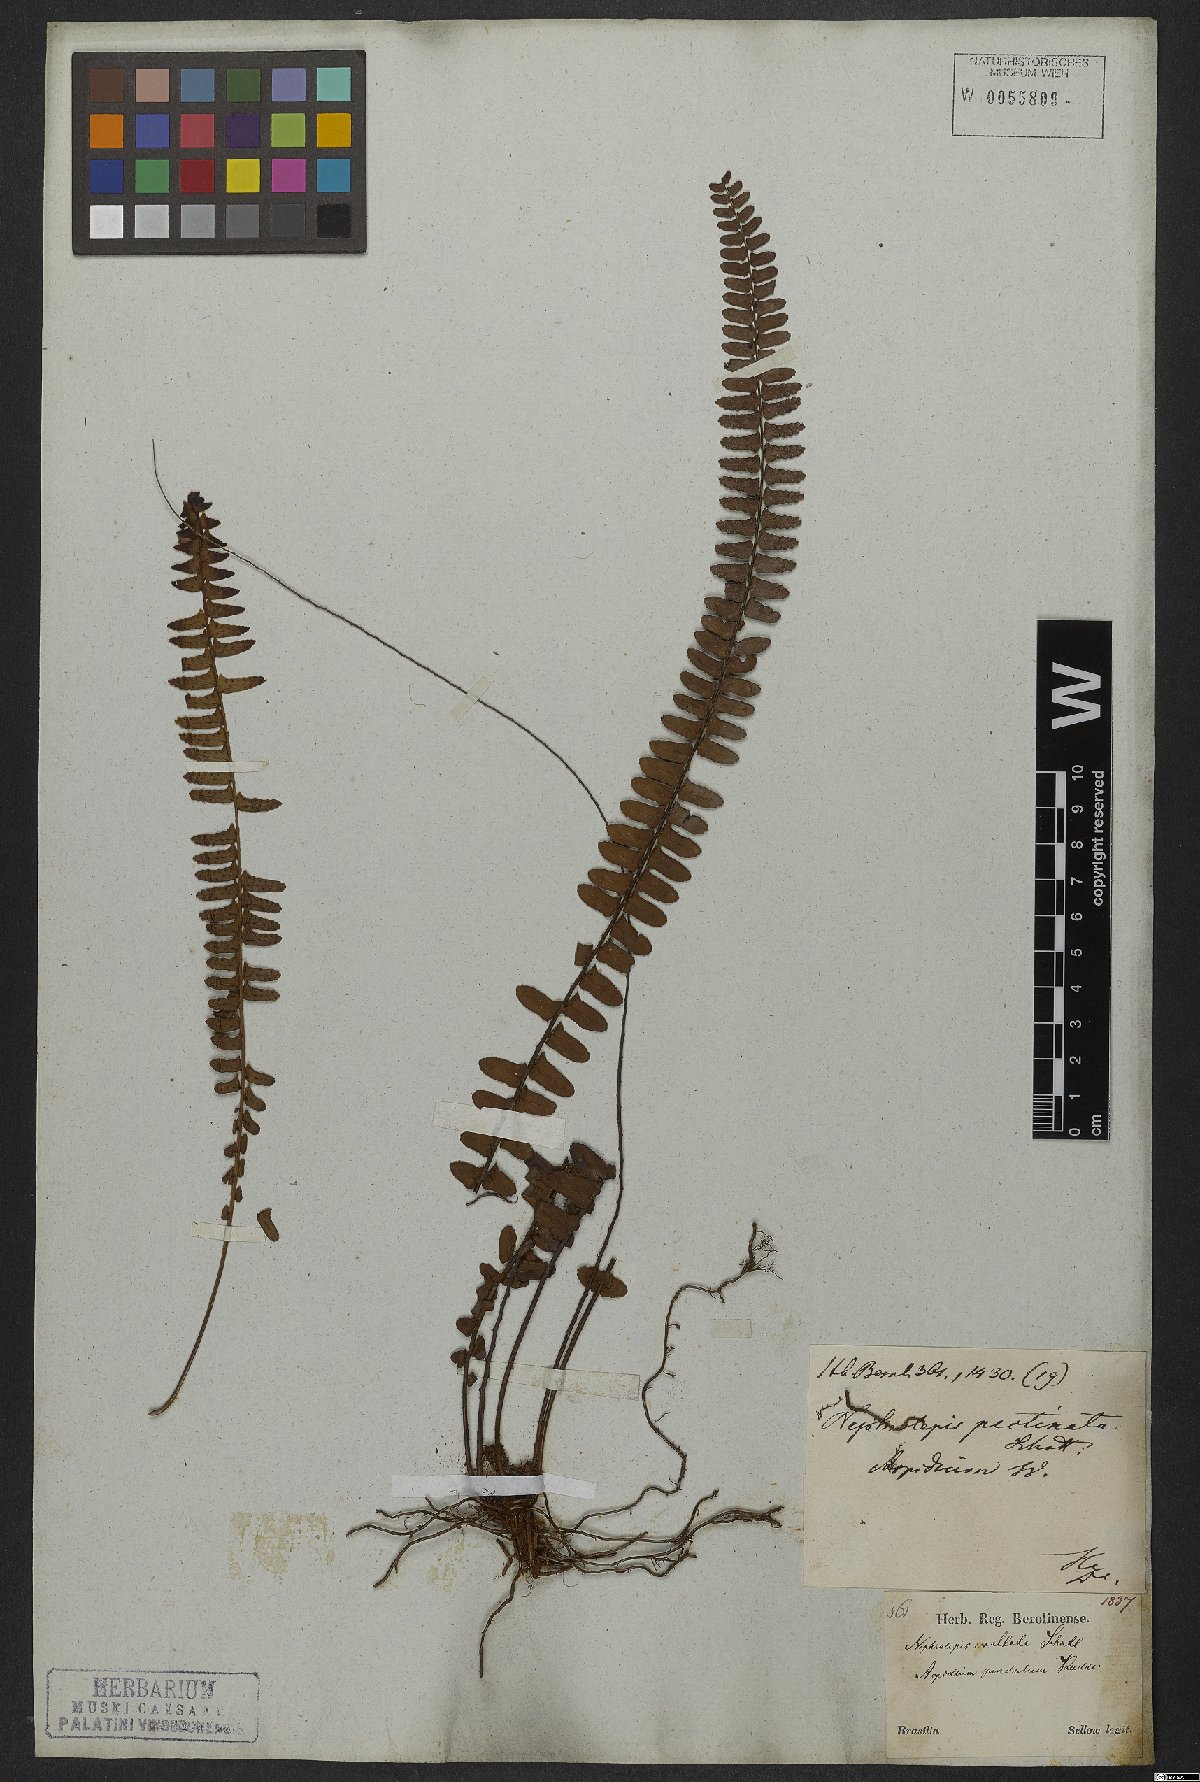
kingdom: Plantae
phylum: Tracheophyta
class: Polypodiopsida
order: Polypodiales
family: Nephrolepidaceae
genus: Nephrolepis
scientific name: Nephrolepis pectinata
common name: Basket fern
